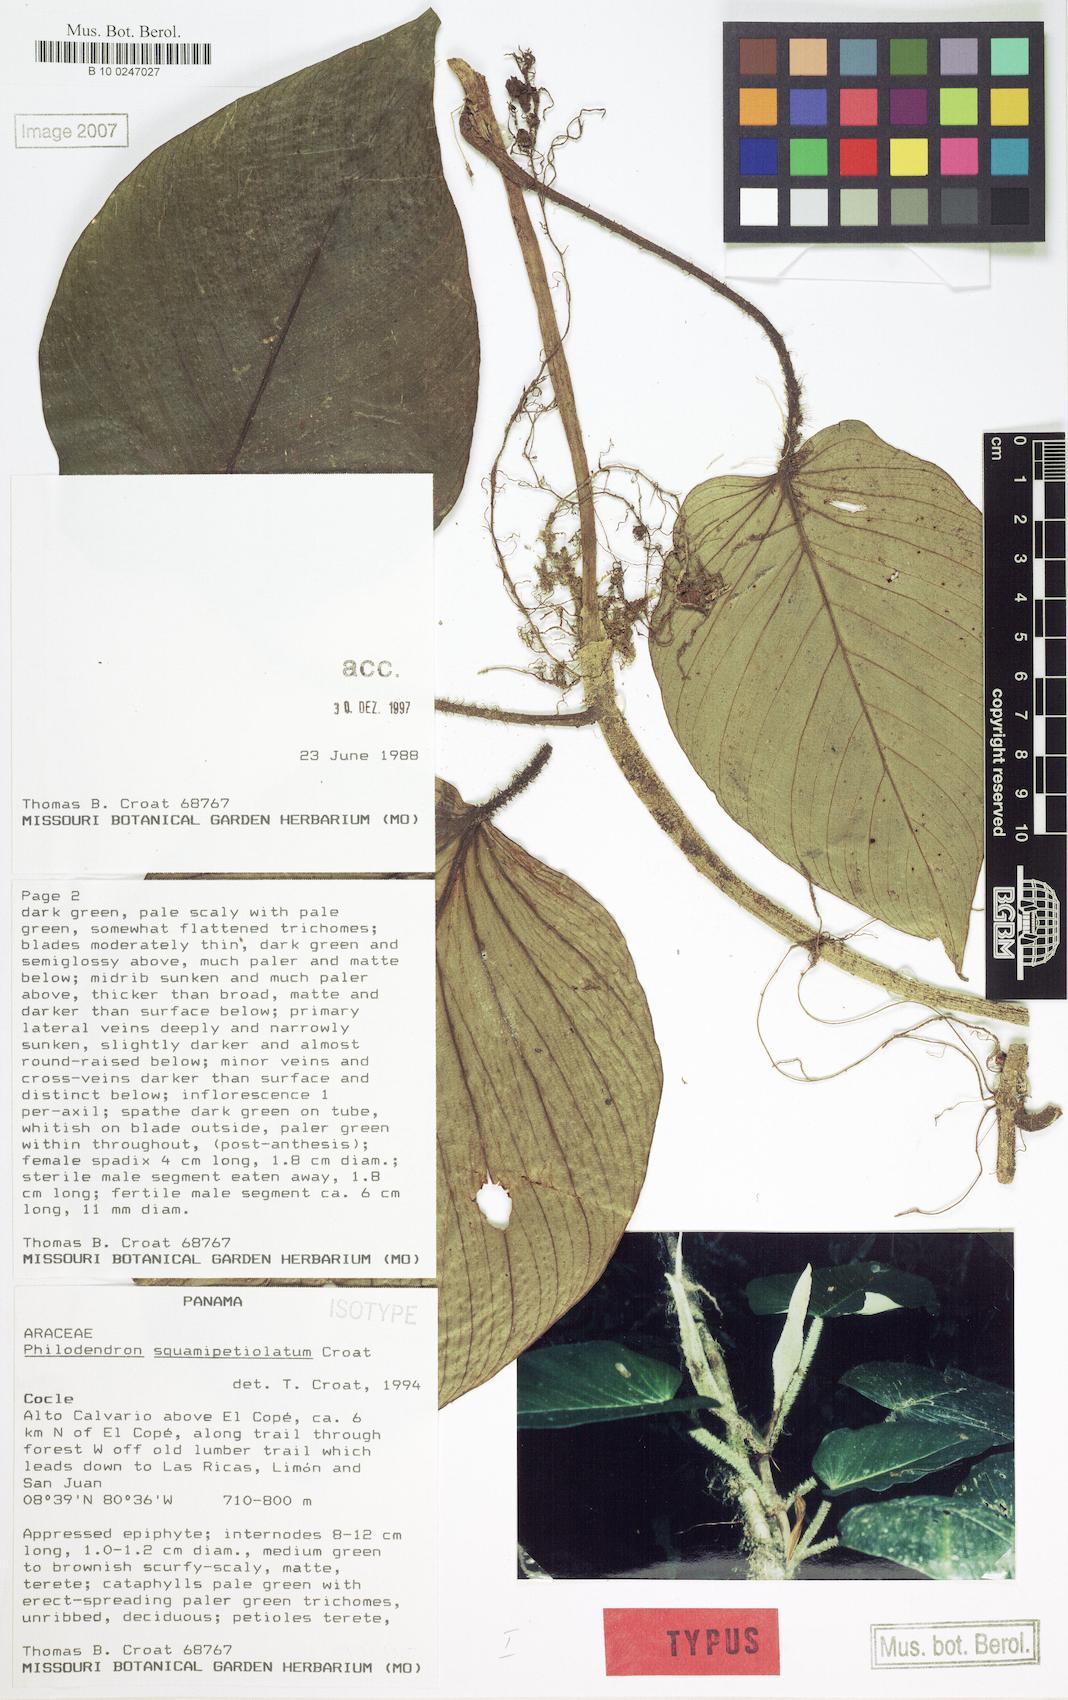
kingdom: Plantae
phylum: Tracheophyta
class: Liliopsida
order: Alismatales
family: Araceae
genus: Philodendron
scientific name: Philodendron squamipetiolatum
